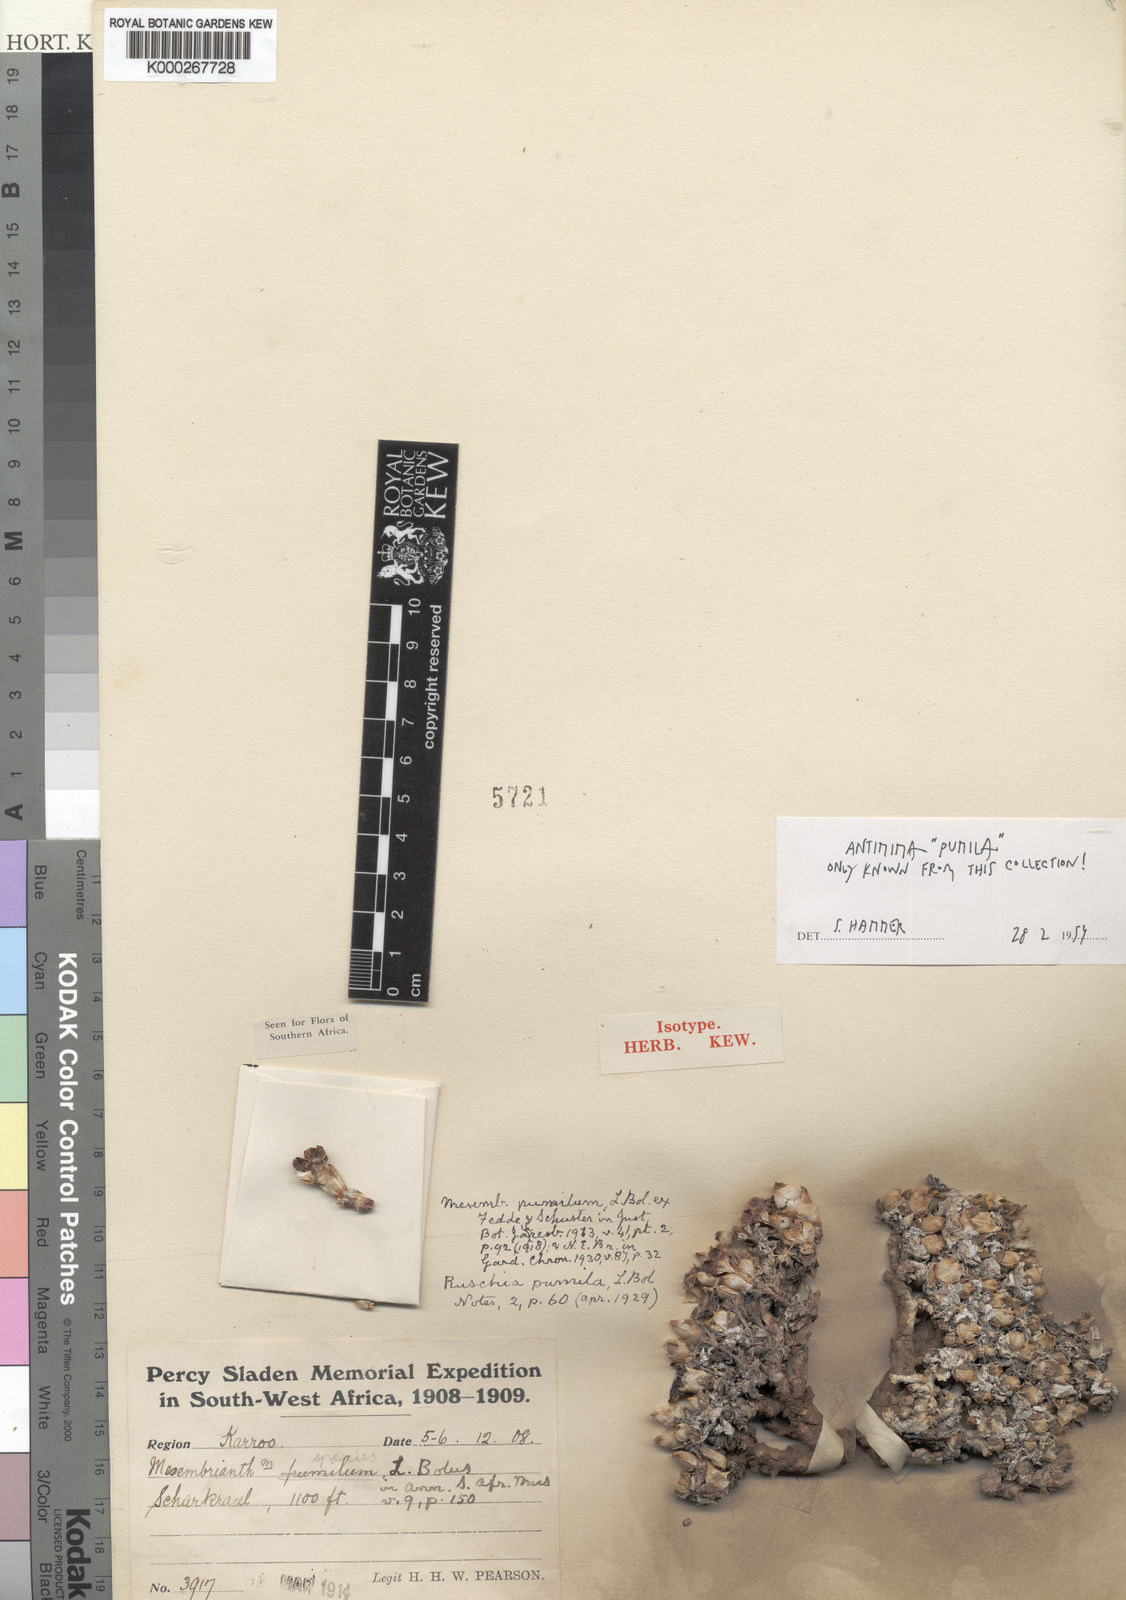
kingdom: Plantae
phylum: Tracheophyta
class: Magnoliopsida
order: Caryophyllales
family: Aizoaceae
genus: Antimima
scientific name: Antimima pumila
